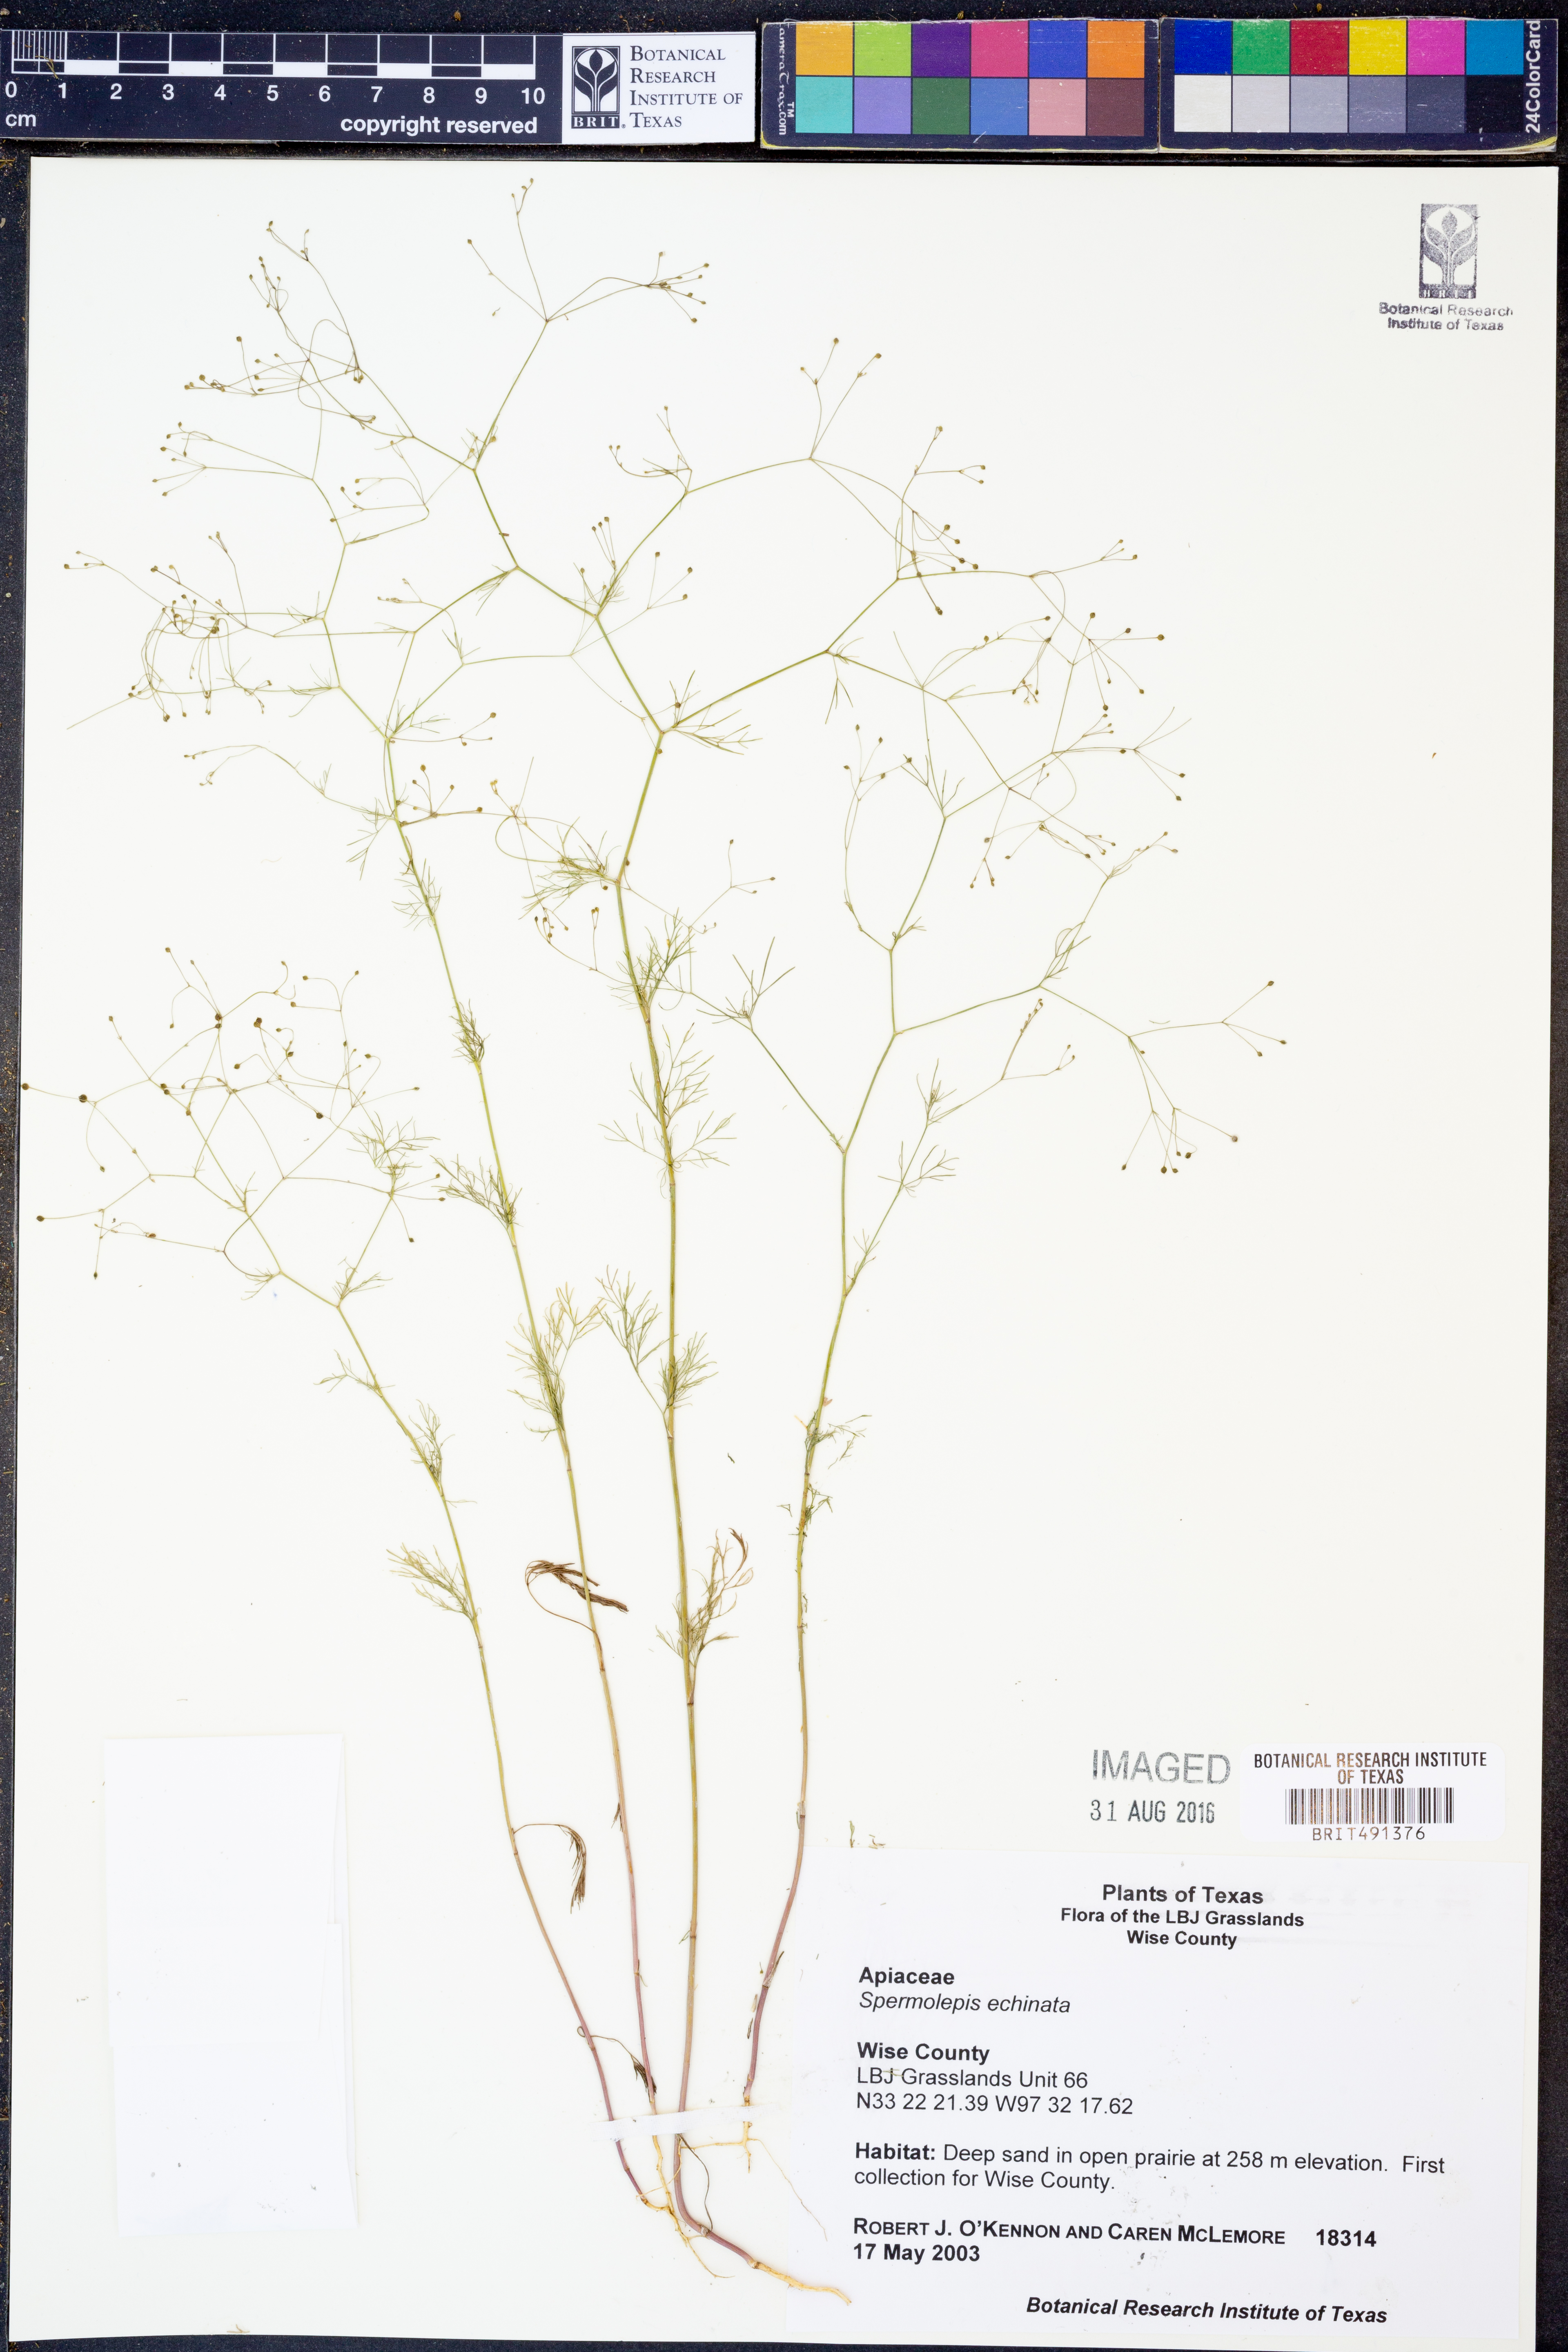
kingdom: Plantae
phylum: Tracheophyta
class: Magnoliopsida
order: Apiales
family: Apiaceae
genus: Spermolepis
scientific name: Spermolepis echinata
